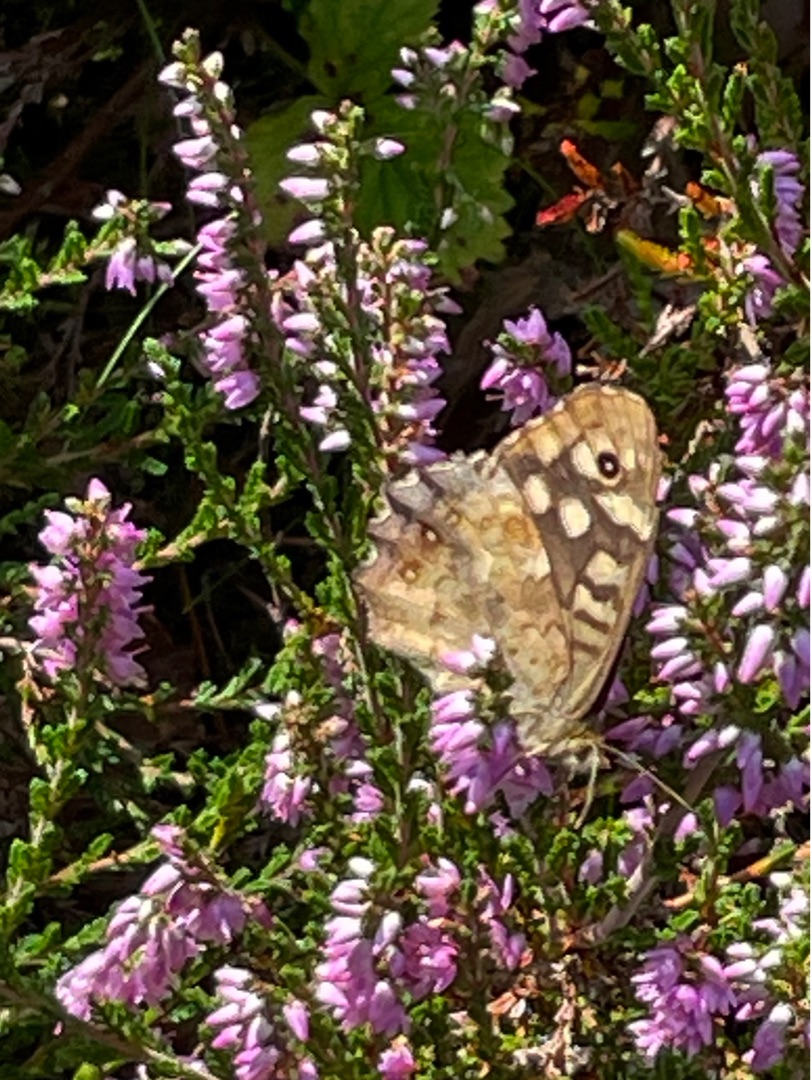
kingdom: Animalia
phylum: Arthropoda
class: Insecta
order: Lepidoptera
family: Nymphalidae
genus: Pararge
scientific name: Pararge aegeria
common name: Skovrandøje
